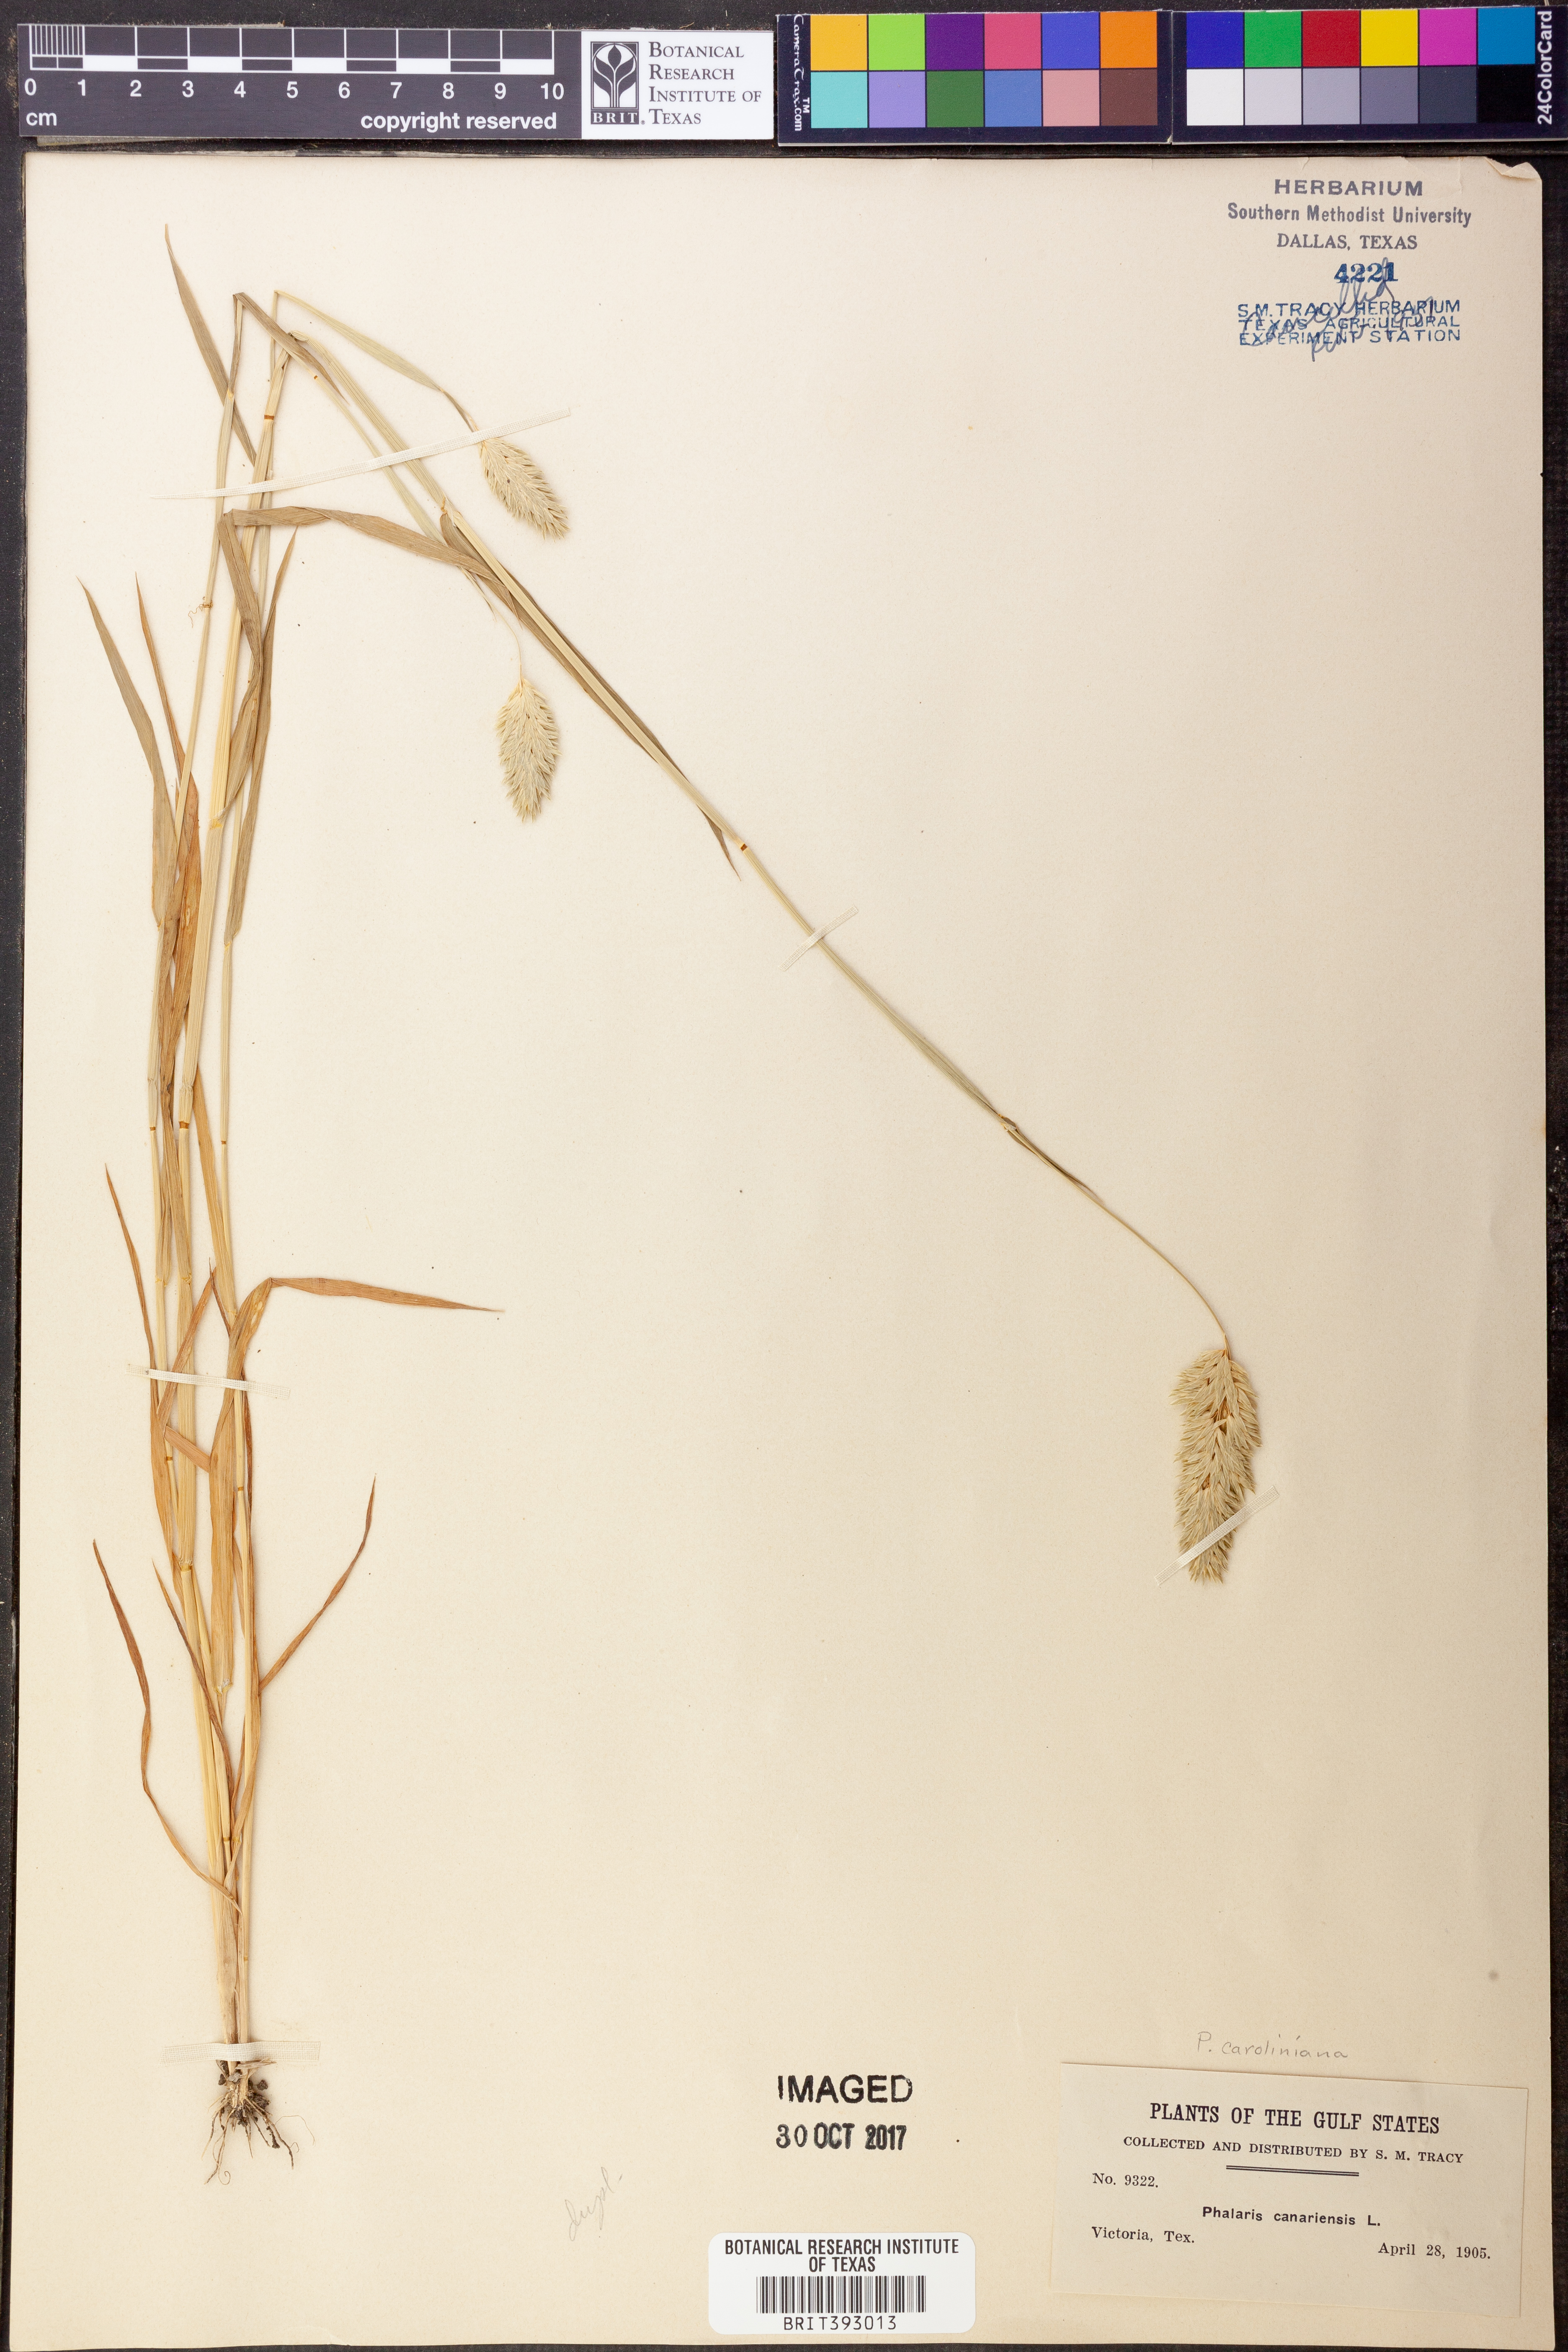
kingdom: Plantae
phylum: Tracheophyta
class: Liliopsida
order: Poales
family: Poaceae
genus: Phalaris
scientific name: Phalaris canariensis
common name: Annual canarygrass
